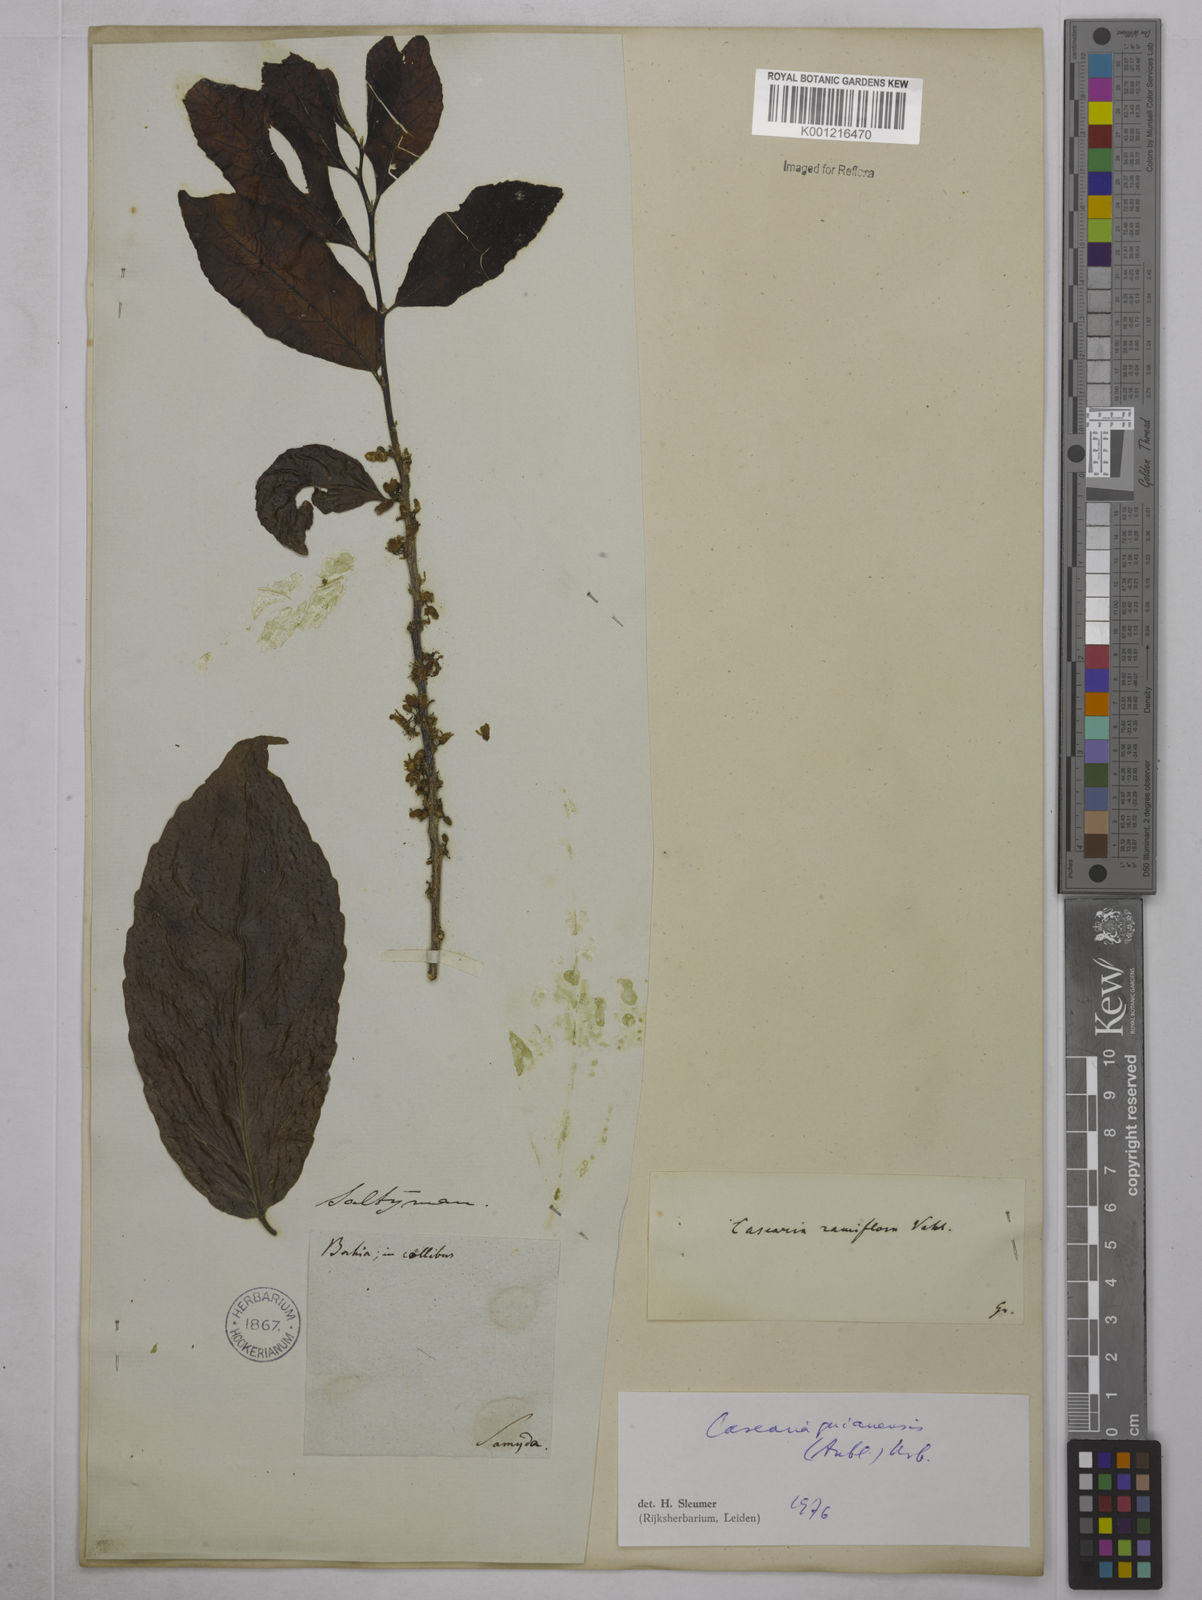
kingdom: Plantae
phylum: Tracheophyta
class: Magnoliopsida
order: Malpighiales
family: Salicaceae
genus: Casearia
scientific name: Casearia guianensis
